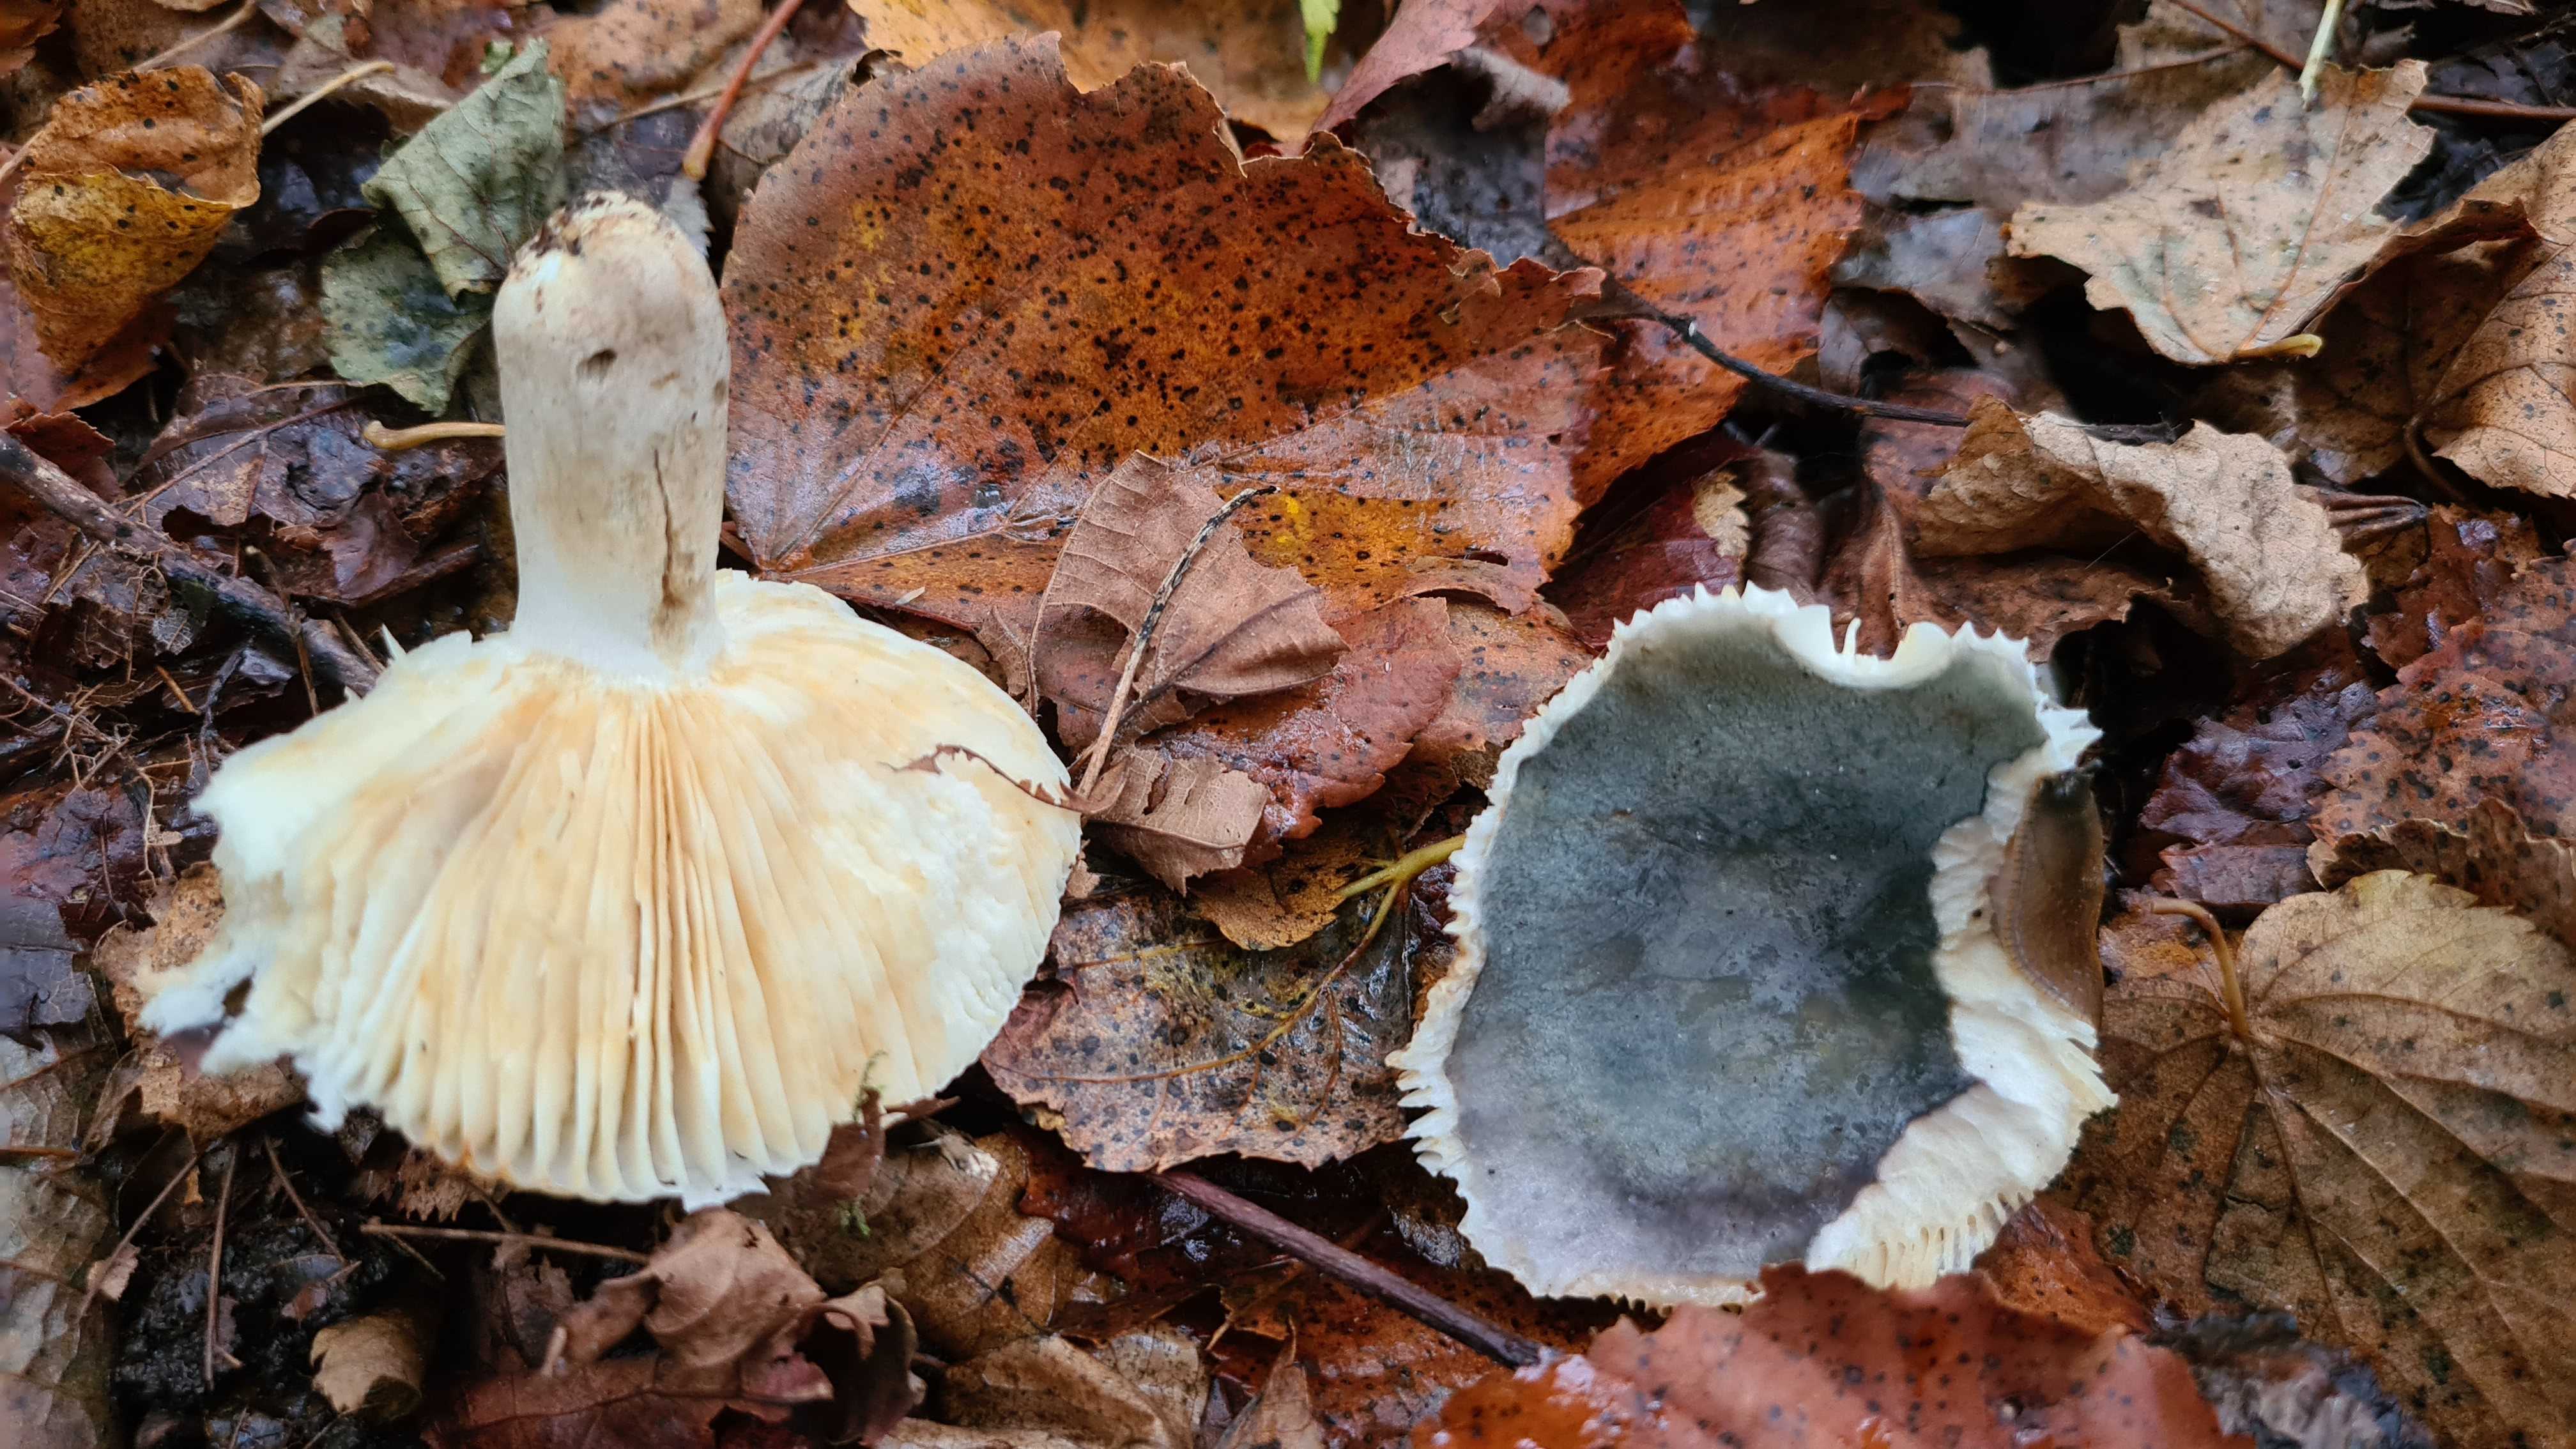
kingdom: Fungi
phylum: Basidiomycota
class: Agaricomycetes
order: Russulales
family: Russulaceae
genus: Russula
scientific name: Russula
